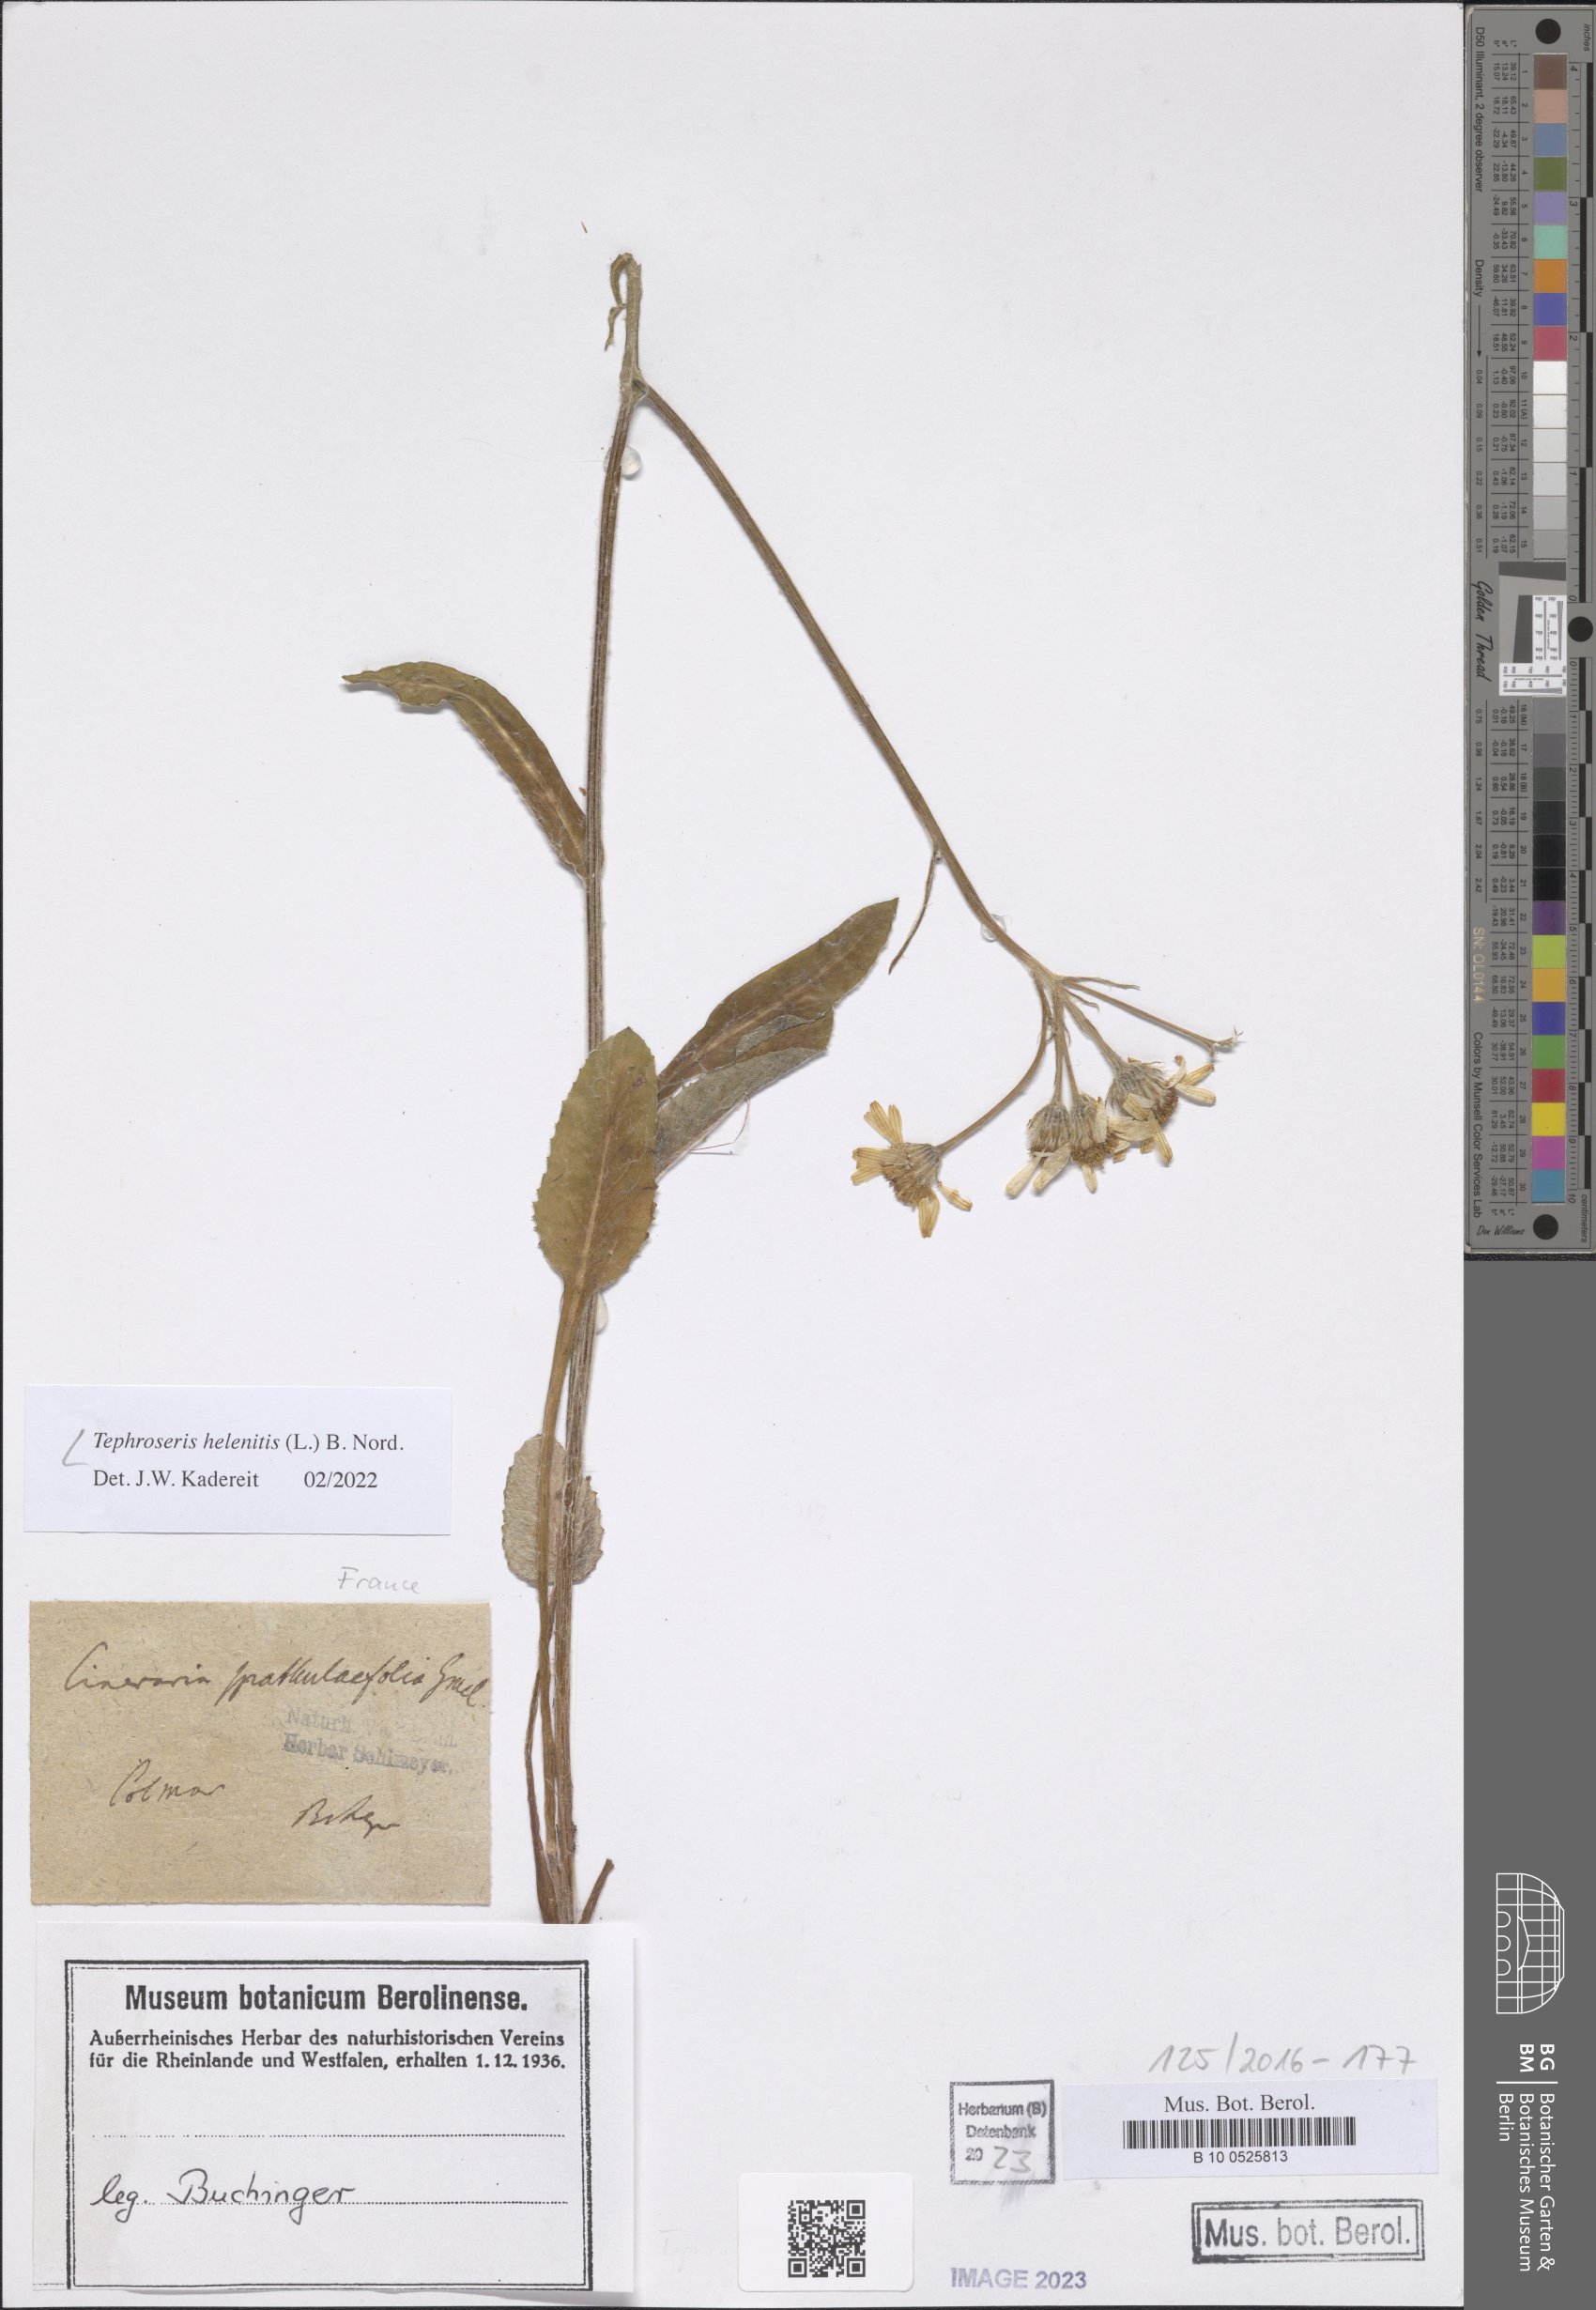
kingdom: Plantae
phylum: Tracheophyta
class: Magnoliopsida
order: Asterales
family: Asteraceae
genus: Tephroseris
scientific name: Tephroseris helenitis
